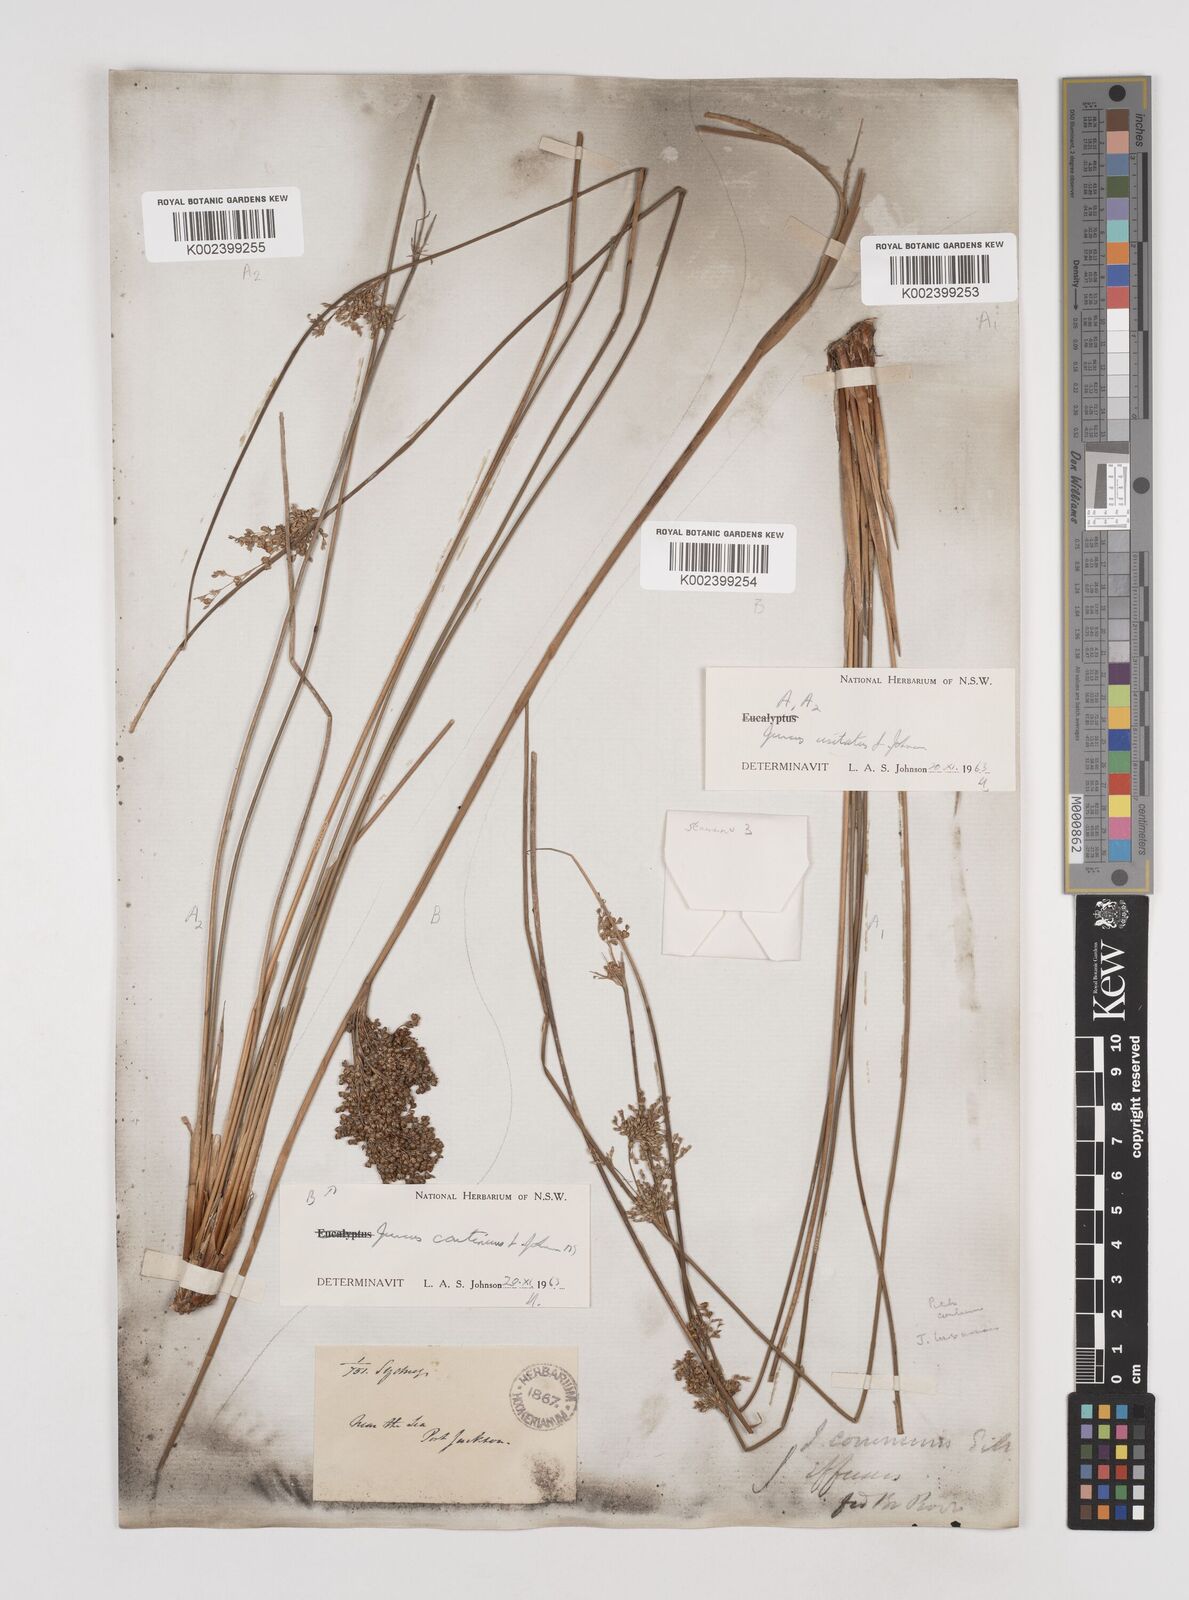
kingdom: Plantae
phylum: Tracheophyta
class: Liliopsida
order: Poales
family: Juncaceae
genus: Juncus
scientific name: Juncus usitatus
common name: Rush
